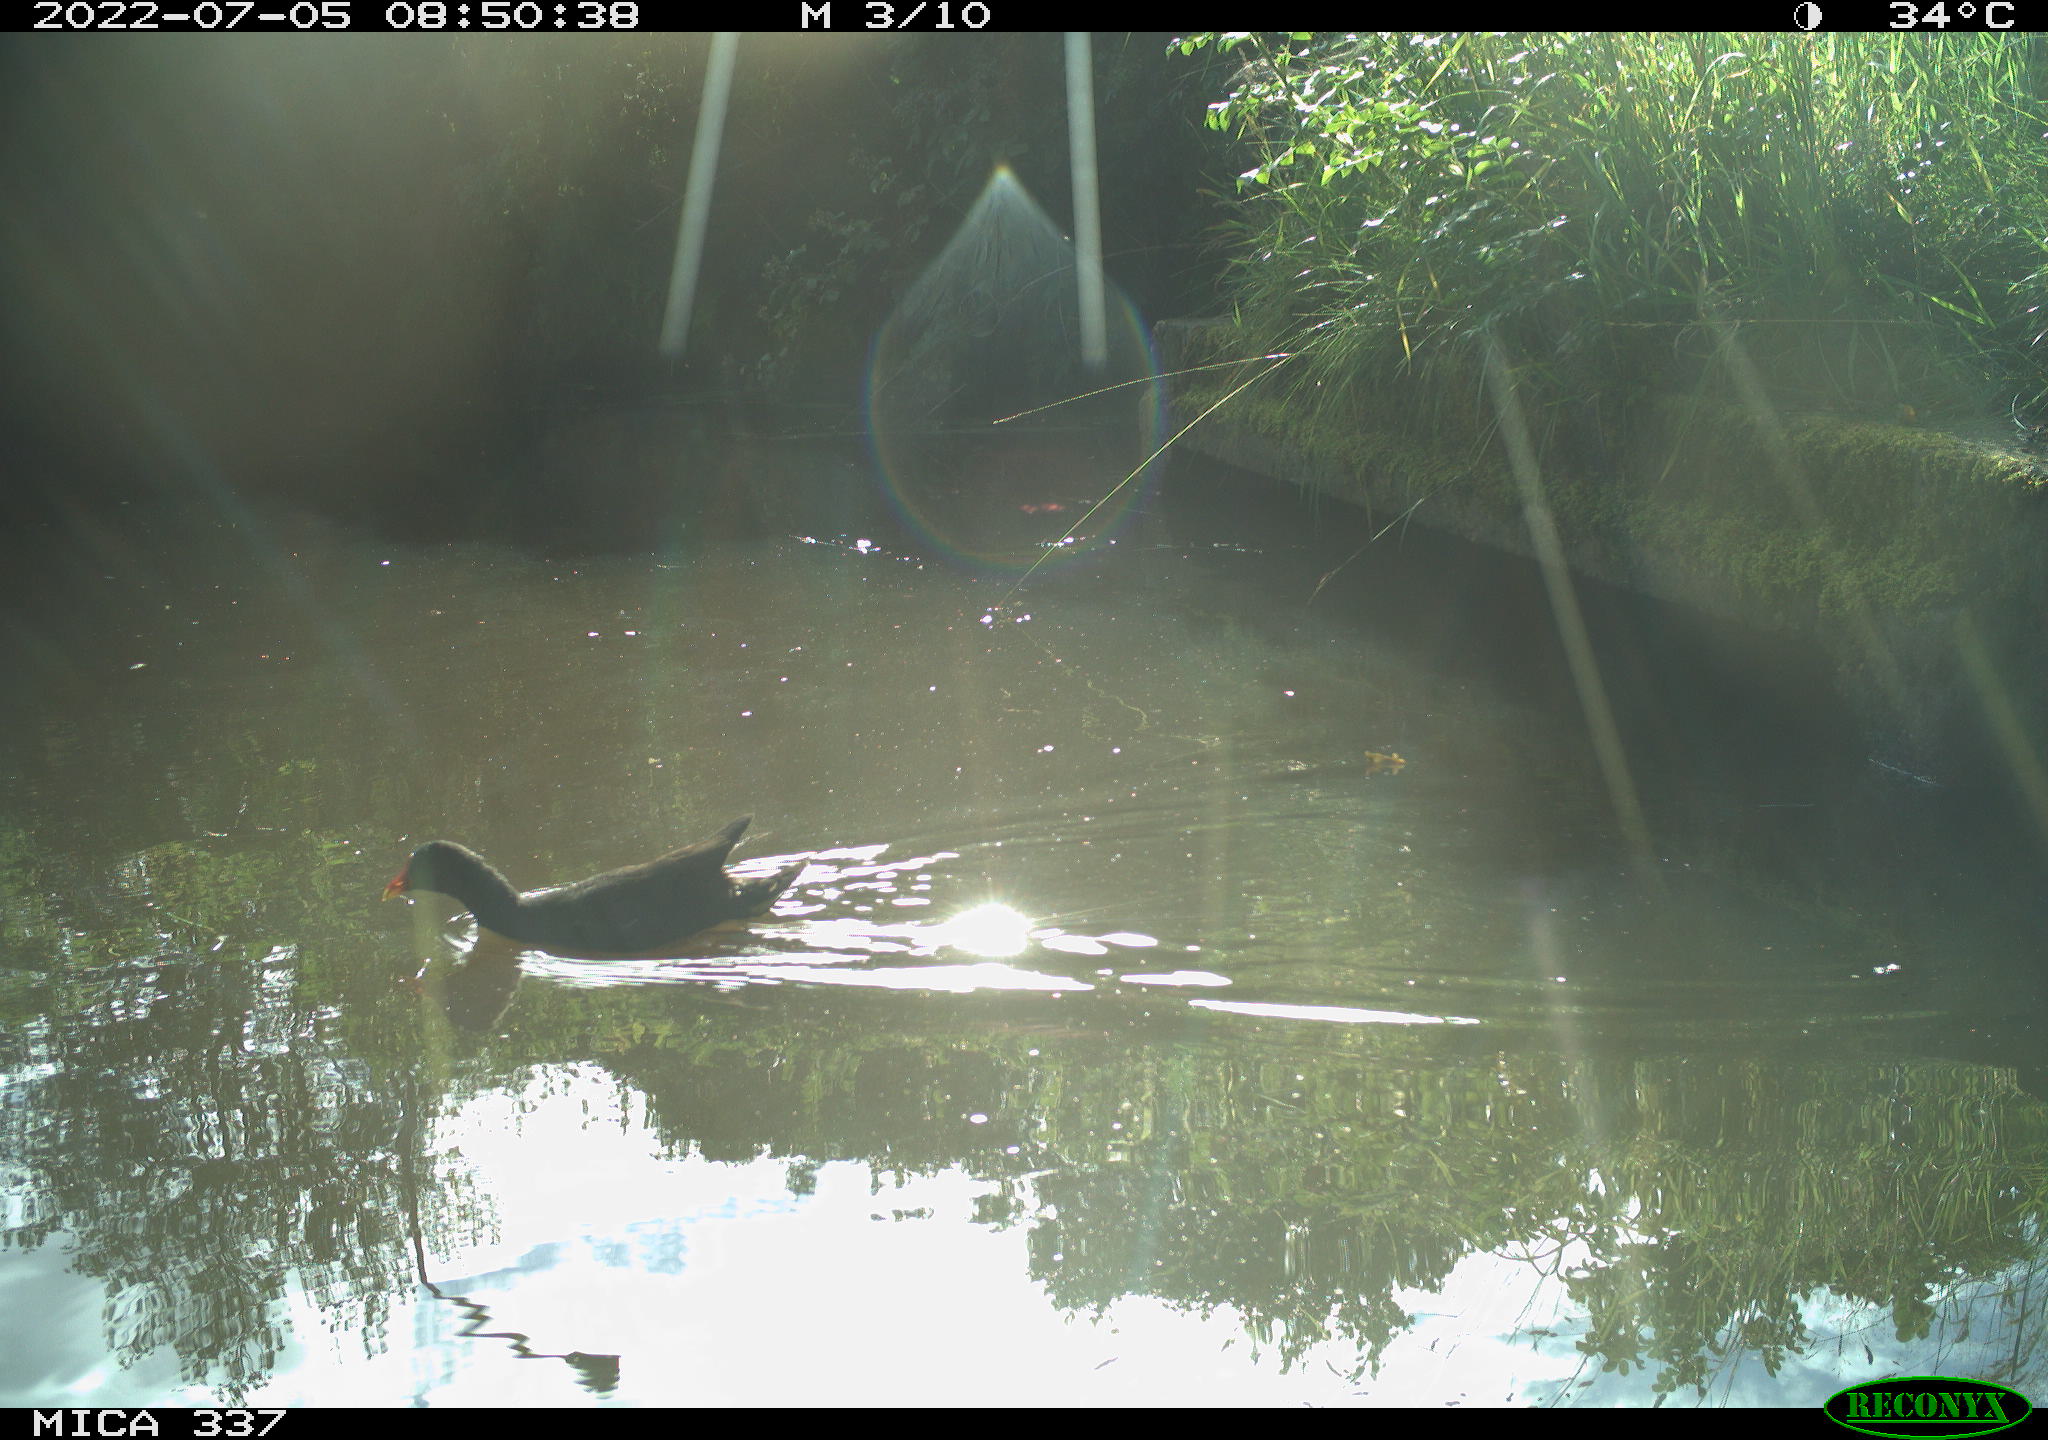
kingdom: Animalia
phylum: Chordata
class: Aves
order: Gruiformes
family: Rallidae
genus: Gallinula
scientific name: Gallinula chloropus
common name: Common moorhen
